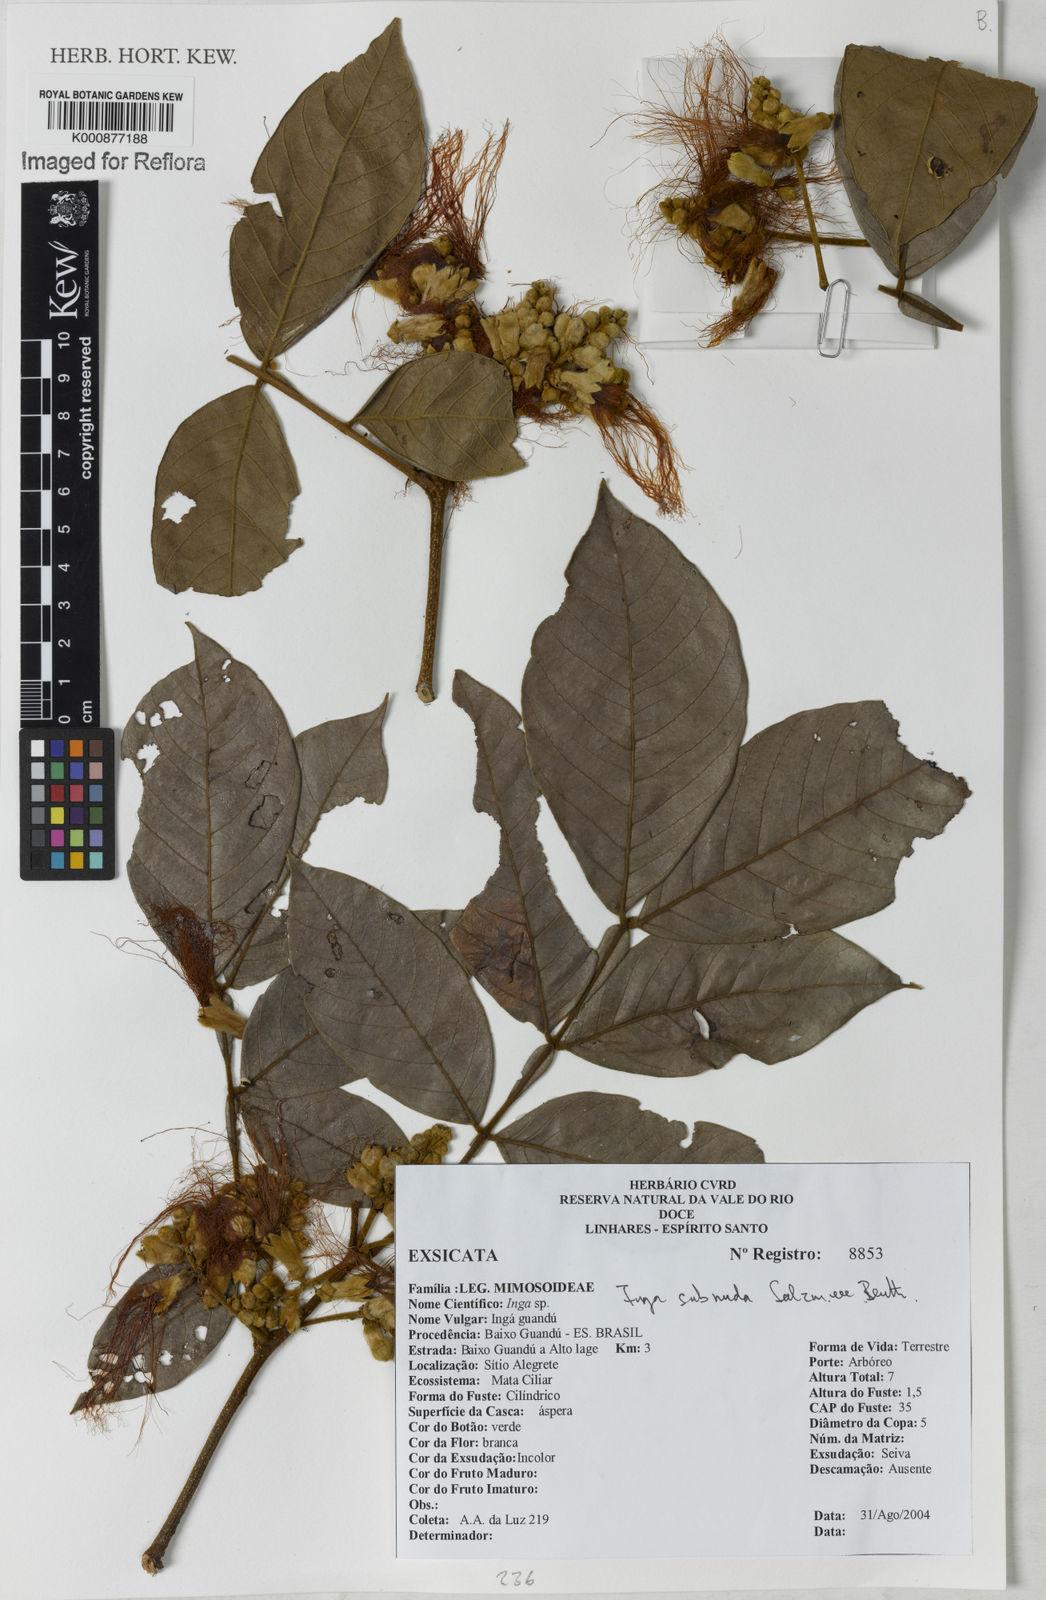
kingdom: Plantae
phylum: Tracheophyta
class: Magnoliopsida
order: Fabales
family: Fabaceae
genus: Inga
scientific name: Inga subnuda
